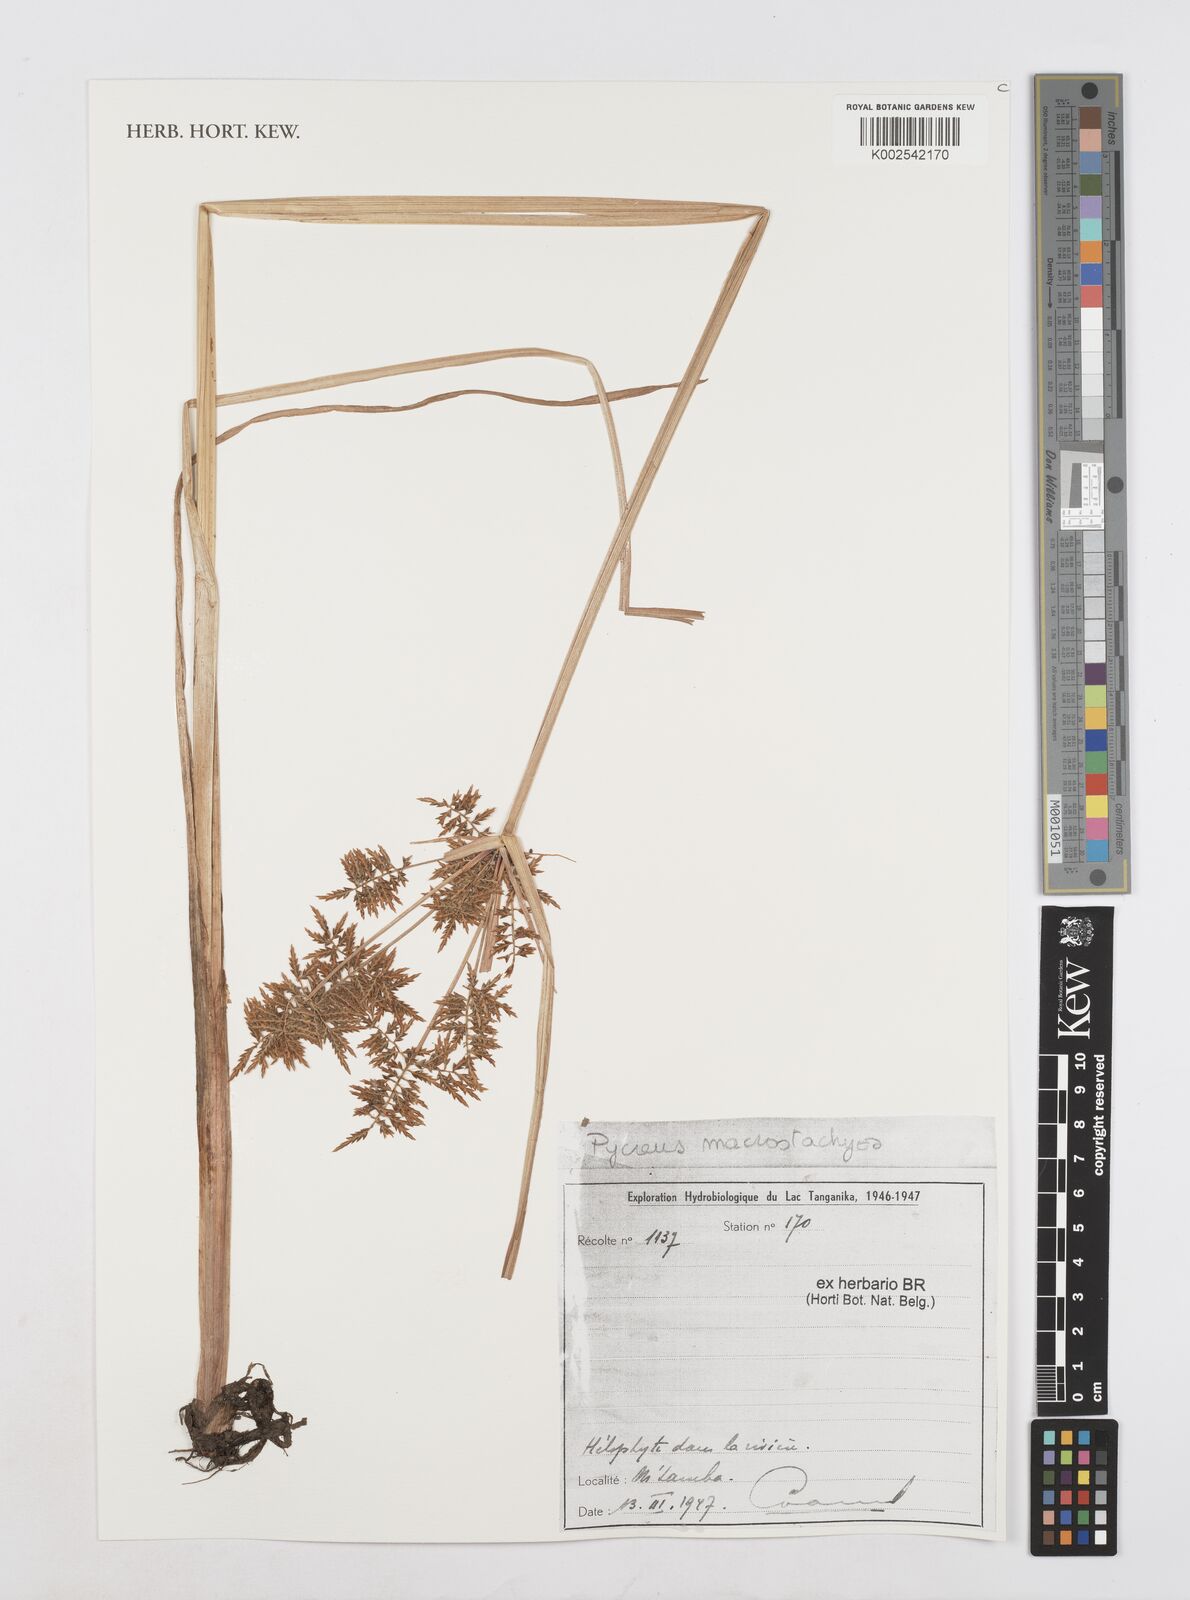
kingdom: Plantae
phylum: Tracheophyta
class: Liliopsida
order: Poales
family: Cyperaceae
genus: Cyperus
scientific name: Cyperus macrostachyos
